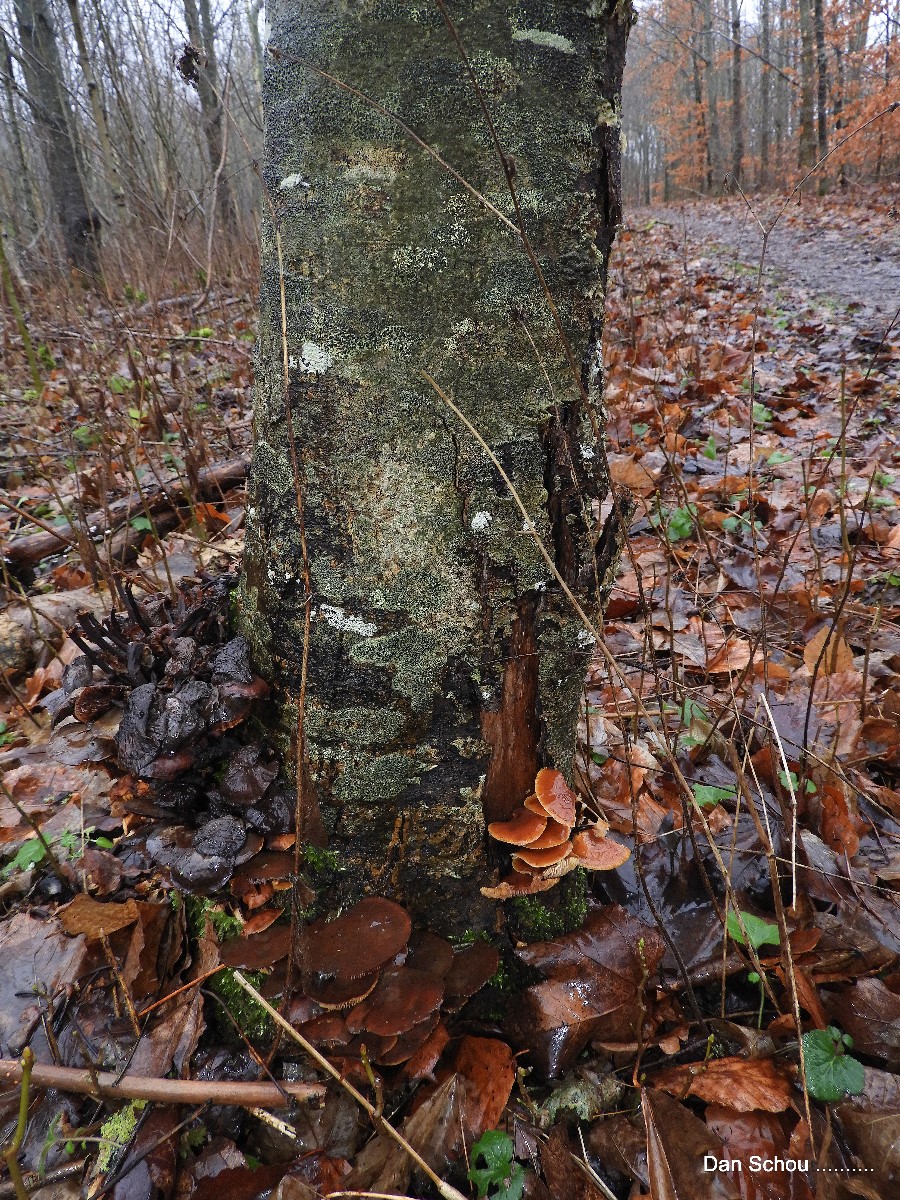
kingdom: Fungi
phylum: Basidiomycota
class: Agaricomycetes
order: Agaricales
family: Physalacriaceae
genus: Flammulina
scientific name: Flammulina velutipes
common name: gul fløjlsfod
